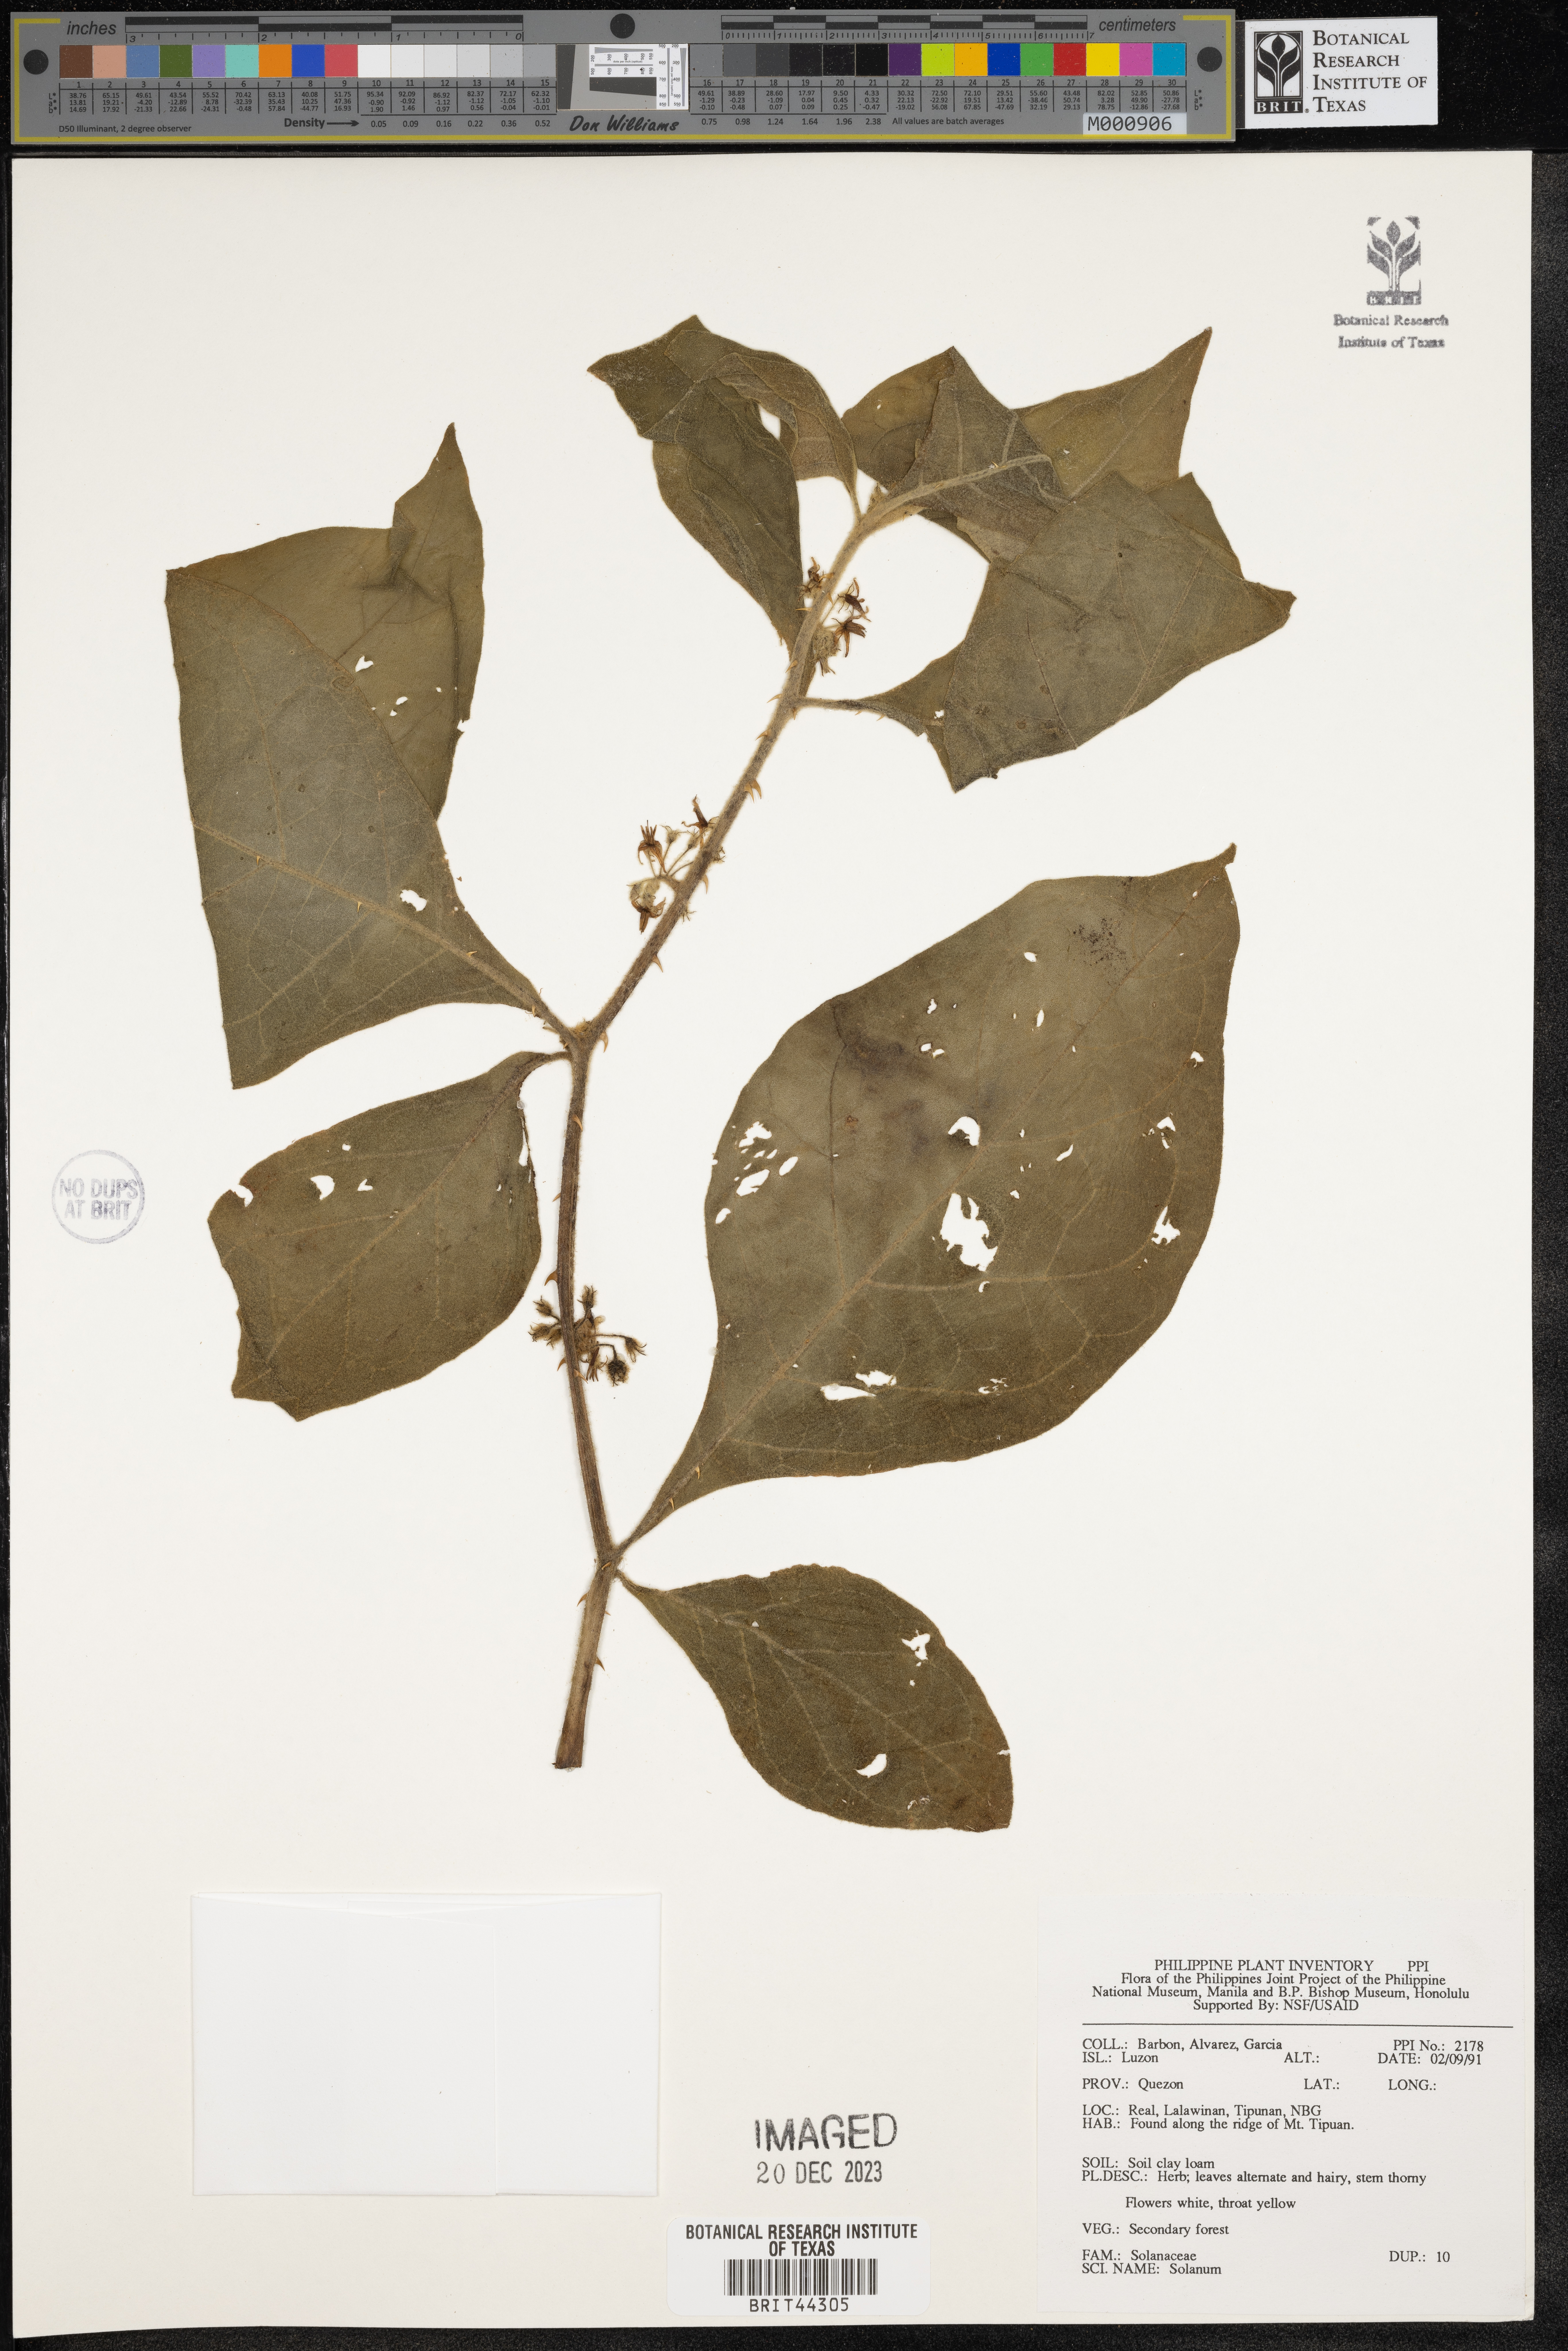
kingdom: Plantae
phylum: Tracheophyta
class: Magnoliopsida
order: Solanales
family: Solanaceae
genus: Solanum
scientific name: Solanum
